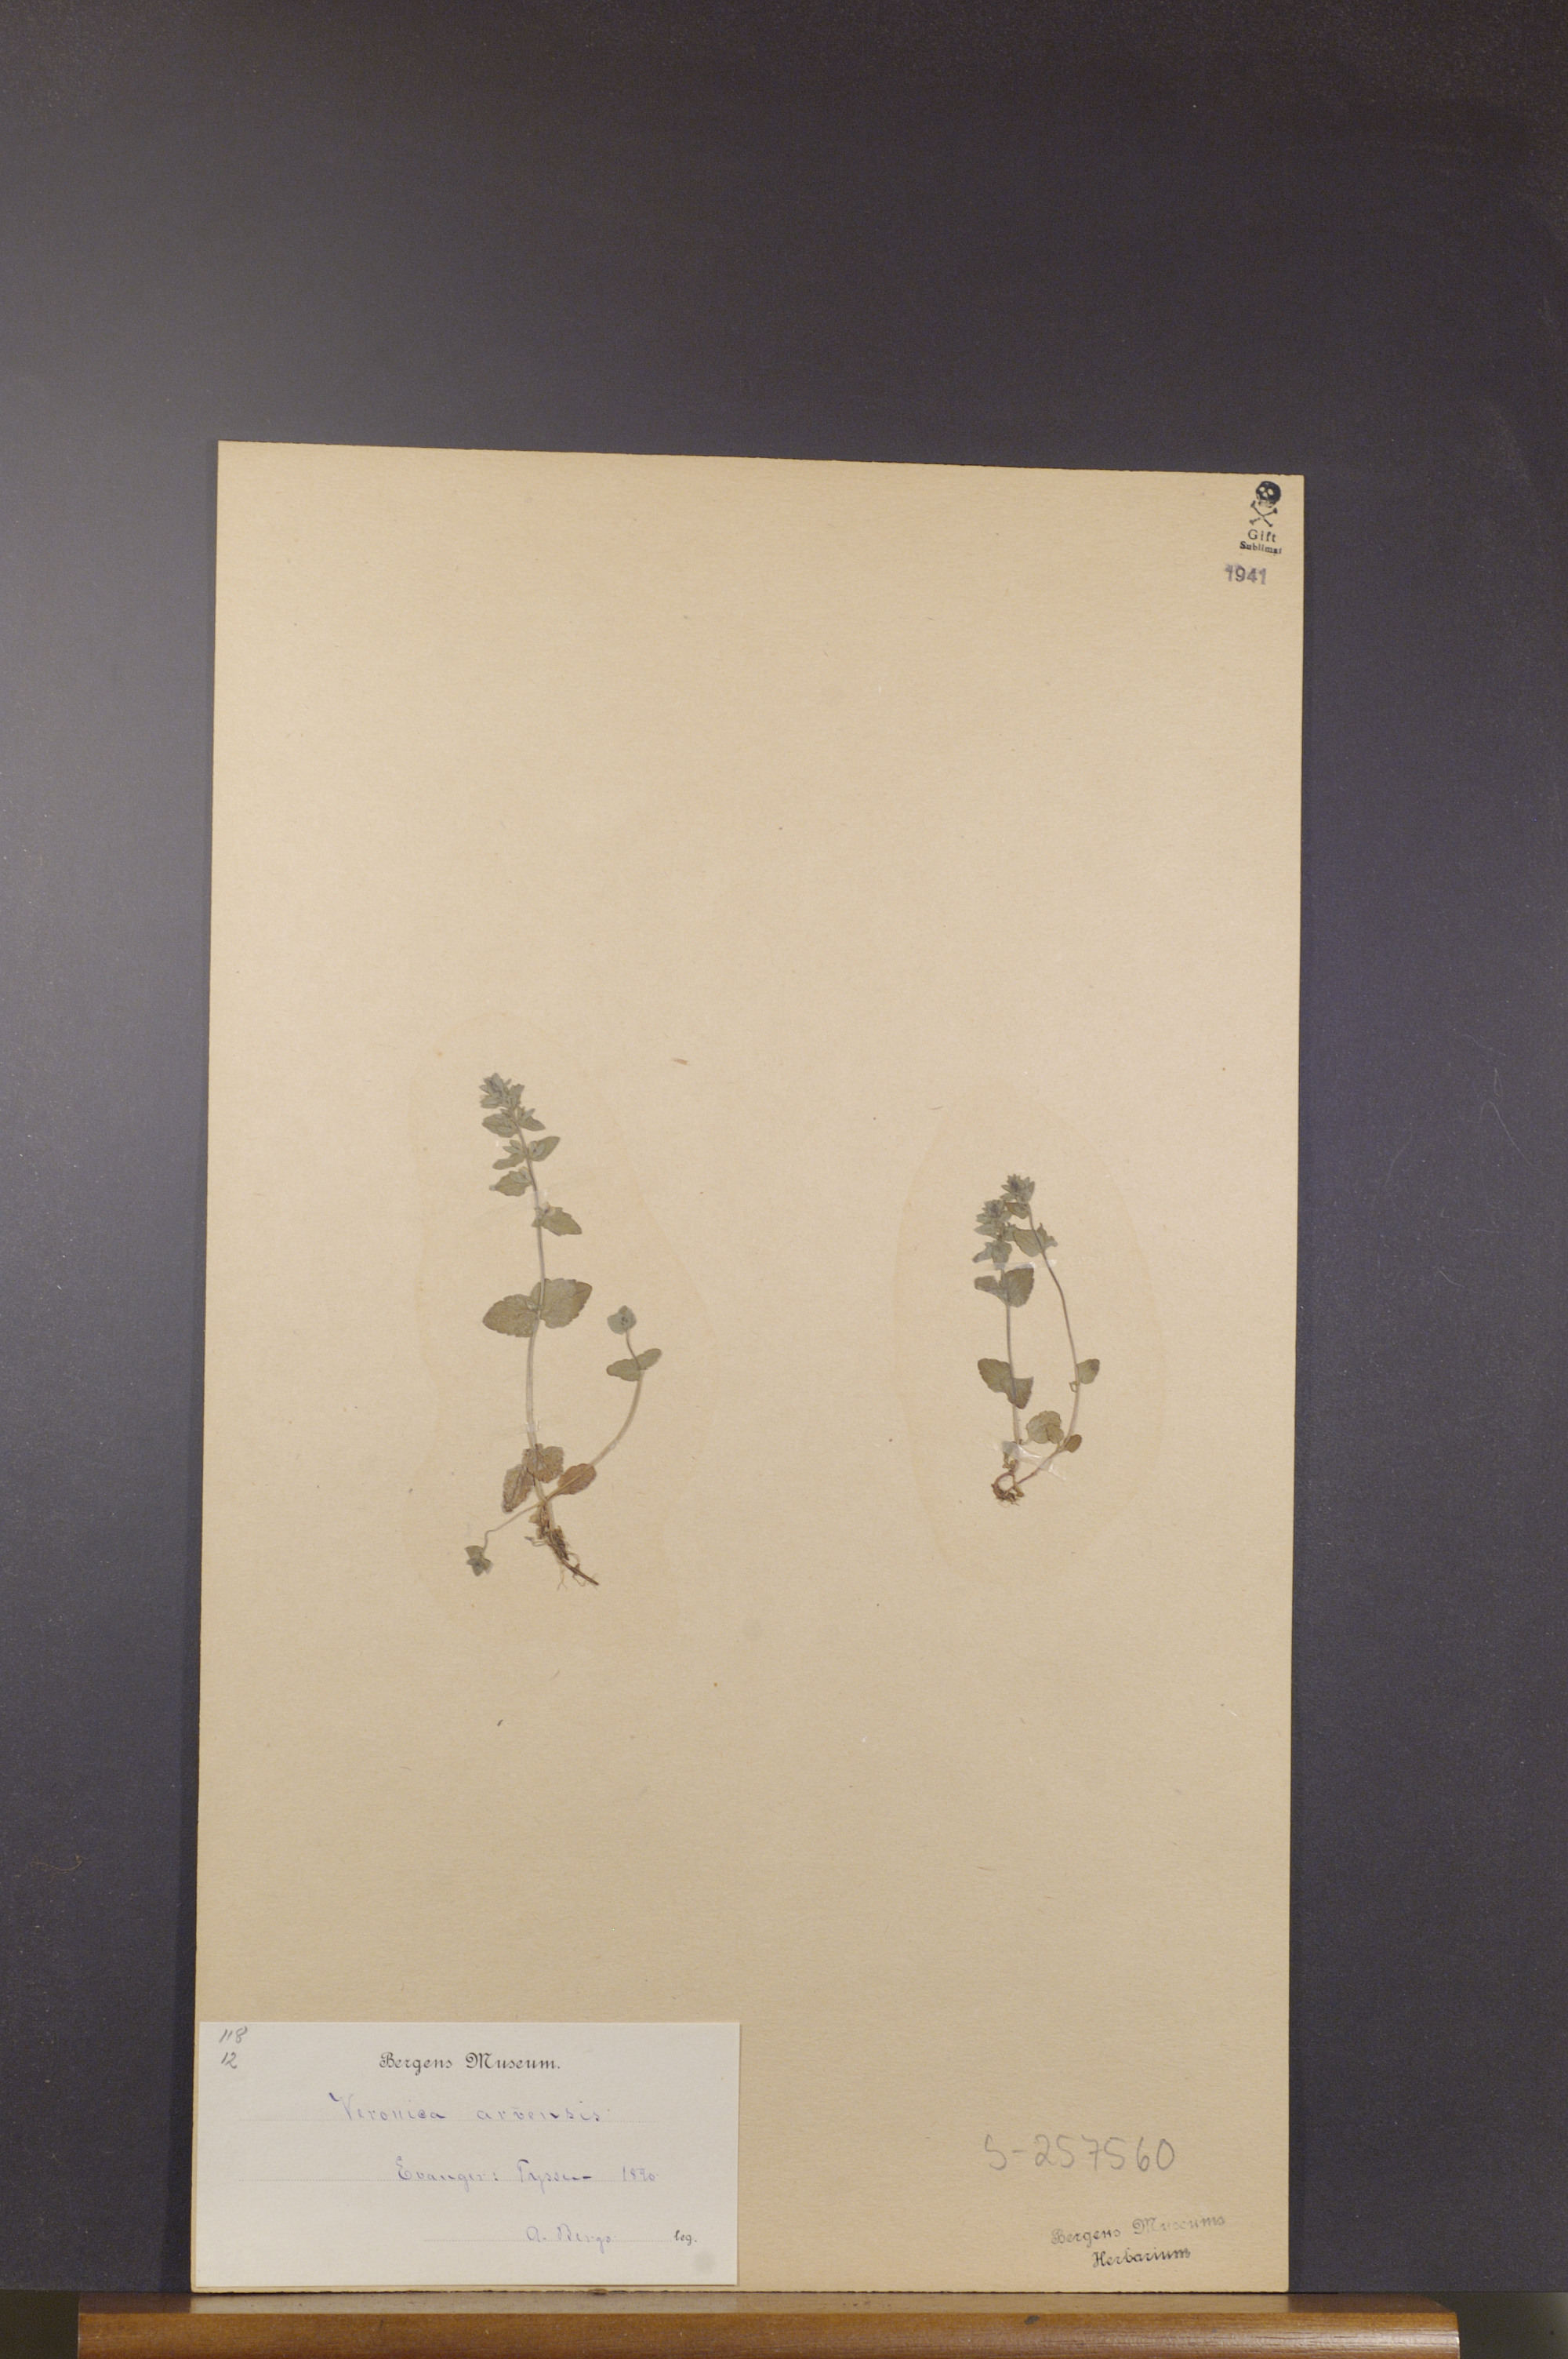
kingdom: Plantae
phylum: Tracheophyta
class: Magnoliopsida
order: Lamiales
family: Plantaginaceae
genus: Veronica
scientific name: Veronica arvensis
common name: Corn speedwell
